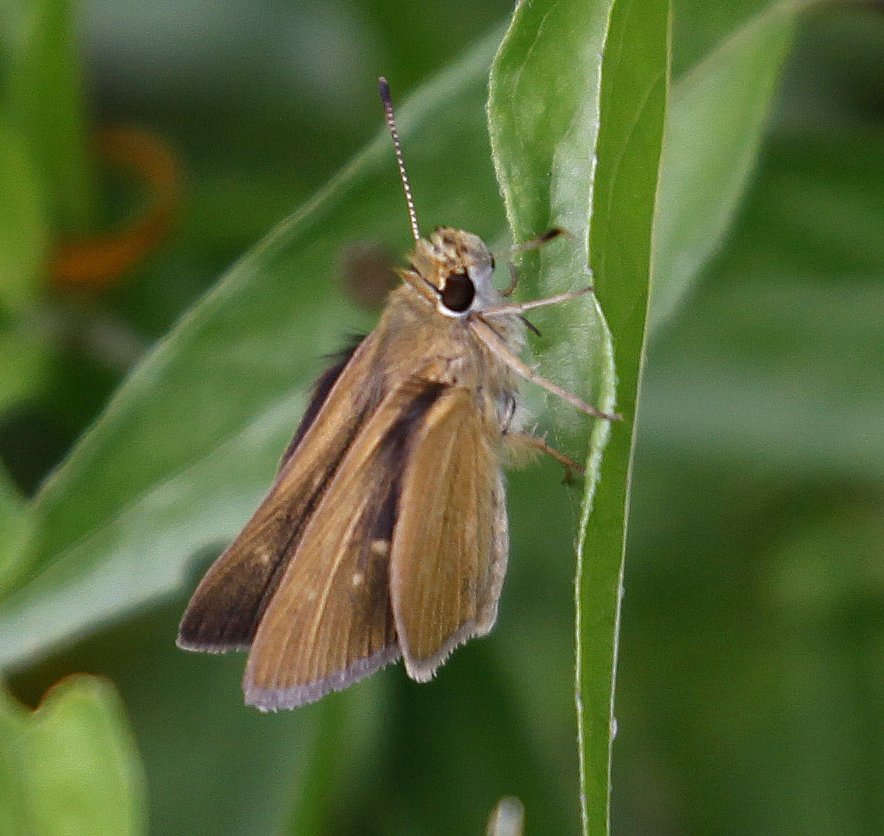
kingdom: Animalia
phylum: Arthropoda
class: Insecta
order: Lepidoptera
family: Hesperiidae
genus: Nastra
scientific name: Nastra julia
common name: Julia's Skipper
